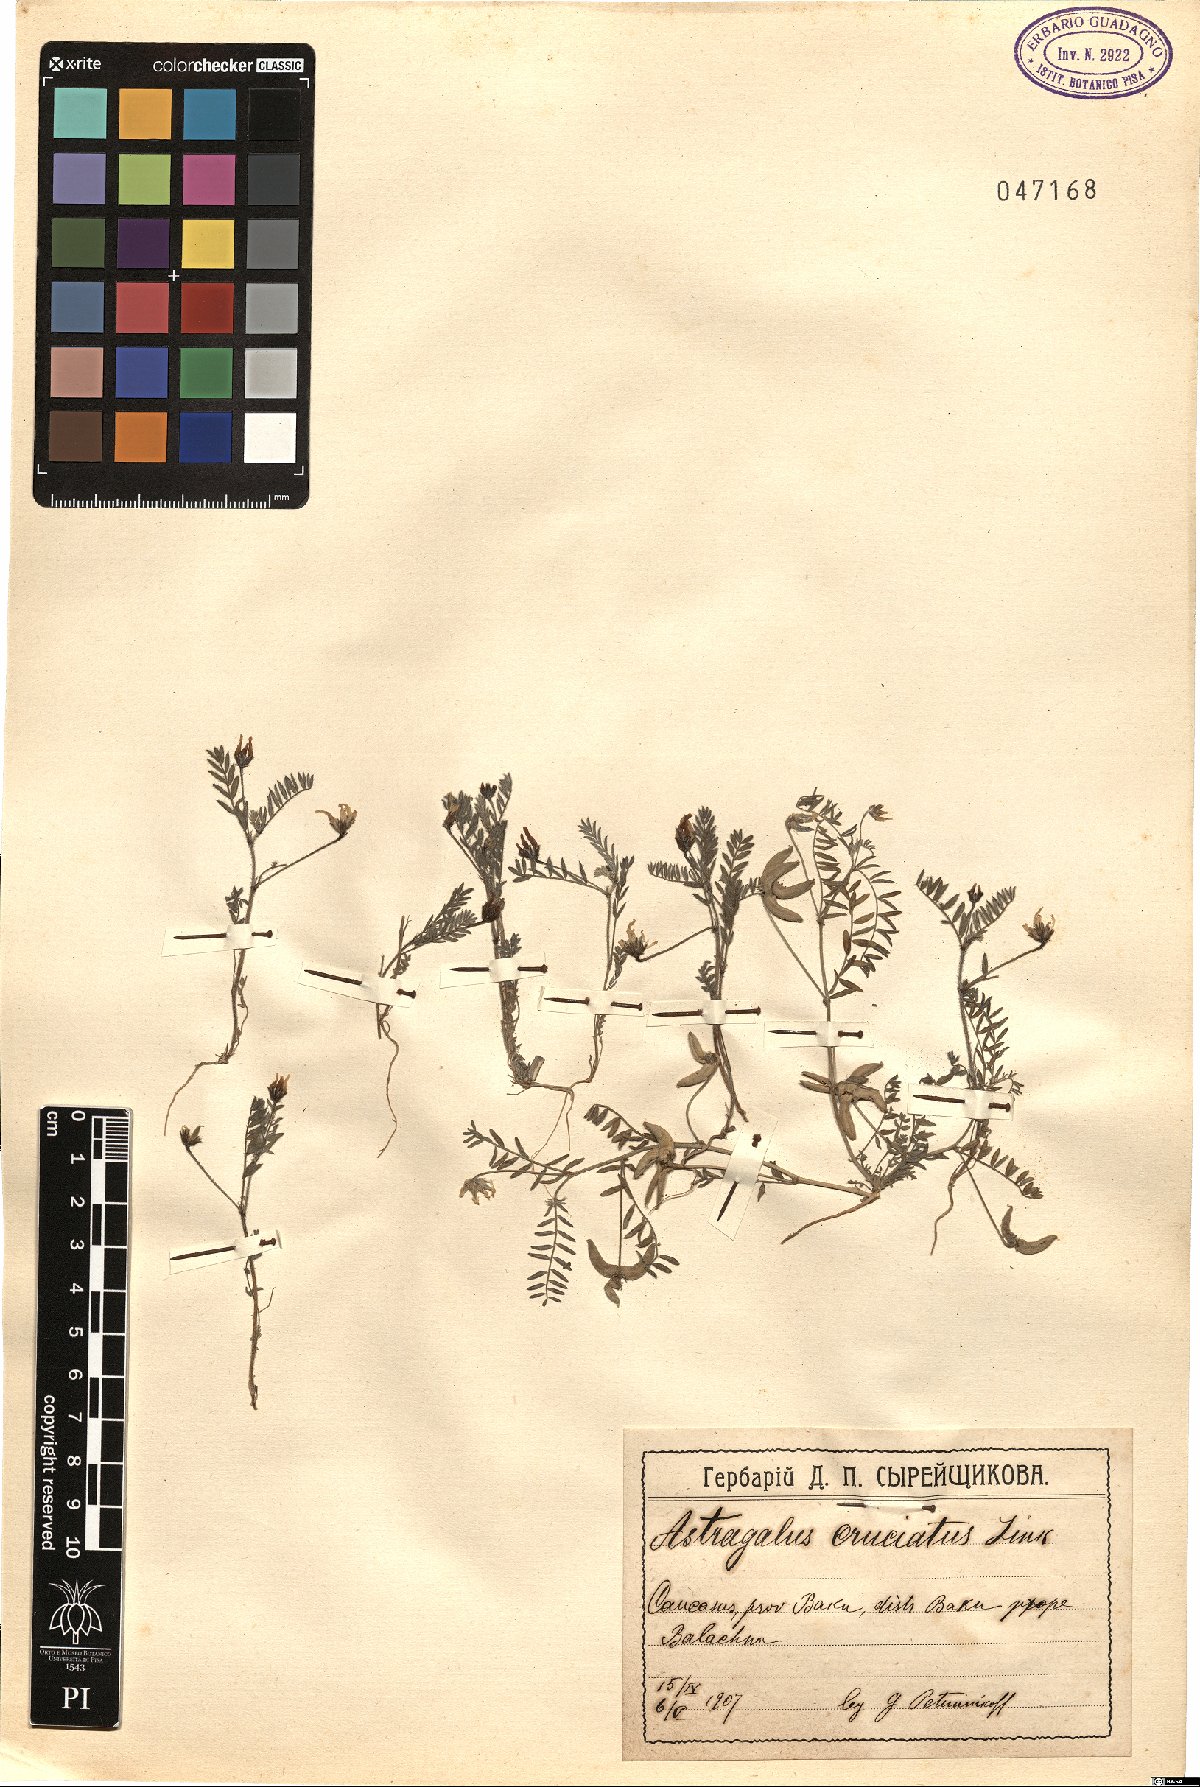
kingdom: Plantae
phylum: Tracheophyta
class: Magnoliopsida
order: Fabales
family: Fabaceae
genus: Astragalus
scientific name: Astragalus crenatus
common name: Milk vetch
